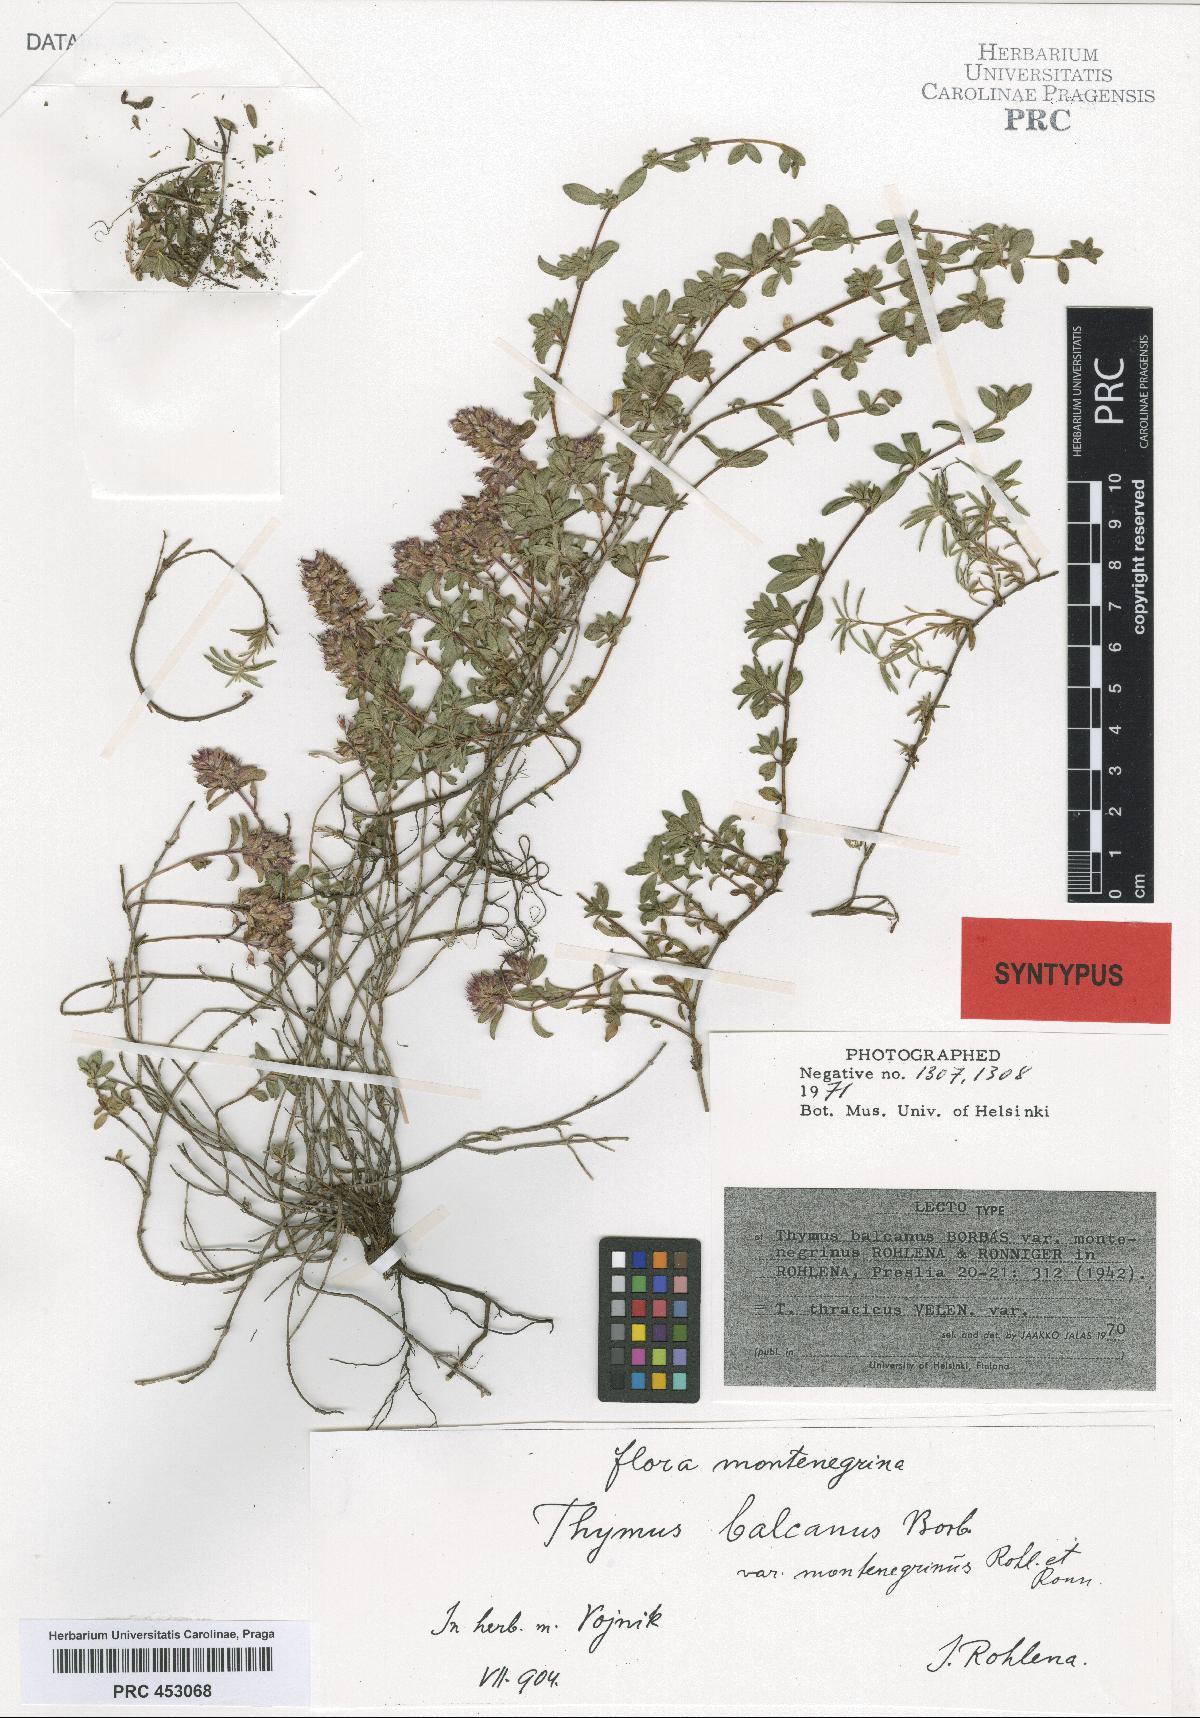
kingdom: Plantae
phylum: Tracheophyta
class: Magnoliopsida
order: Lamiales
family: Lamiaceae
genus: Thymus
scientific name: Thymus thracicus
